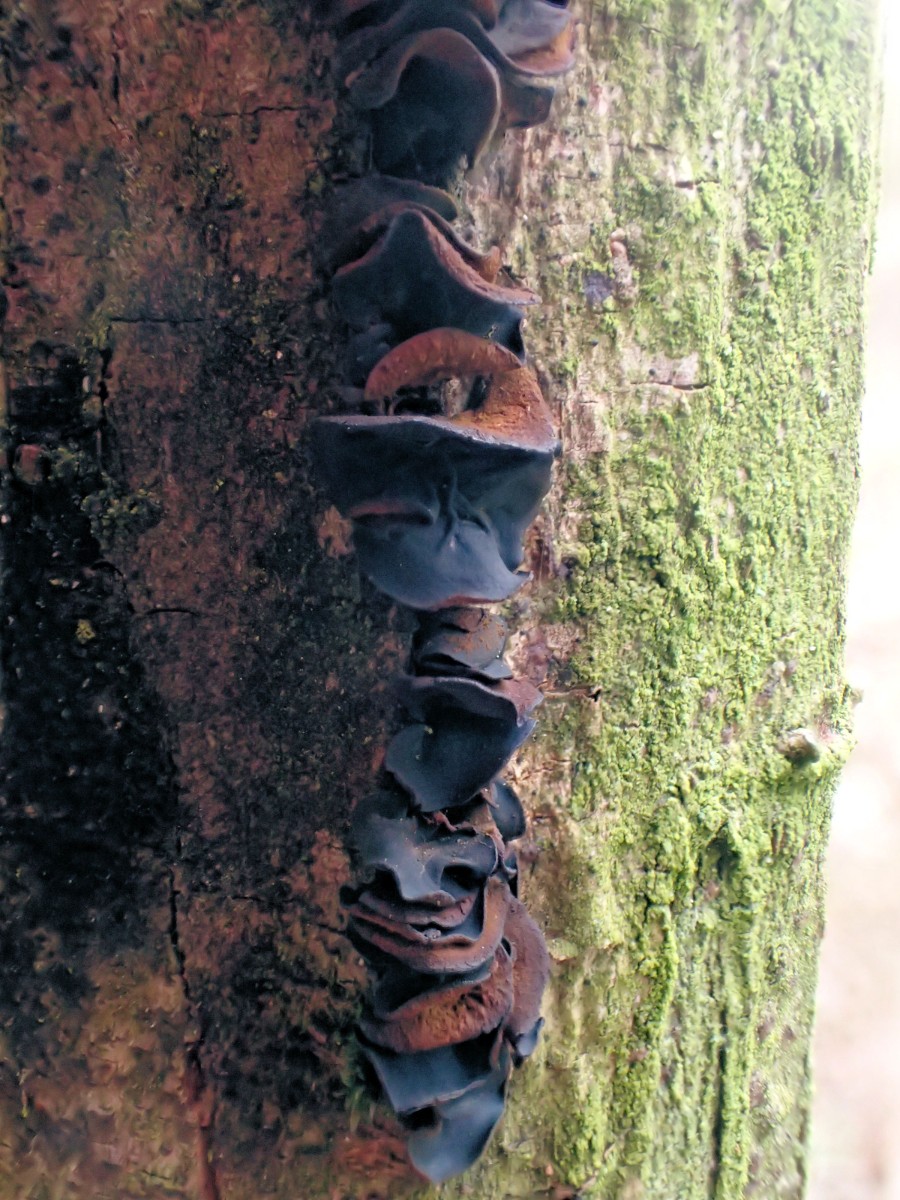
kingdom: Fungi
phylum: Ascomycota
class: Leotiomycetes
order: Helotiales
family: Cordieritidaceae
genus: Ionomidotis
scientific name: Ionomidotis fulvotingens
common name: rødmende tjæreskive
